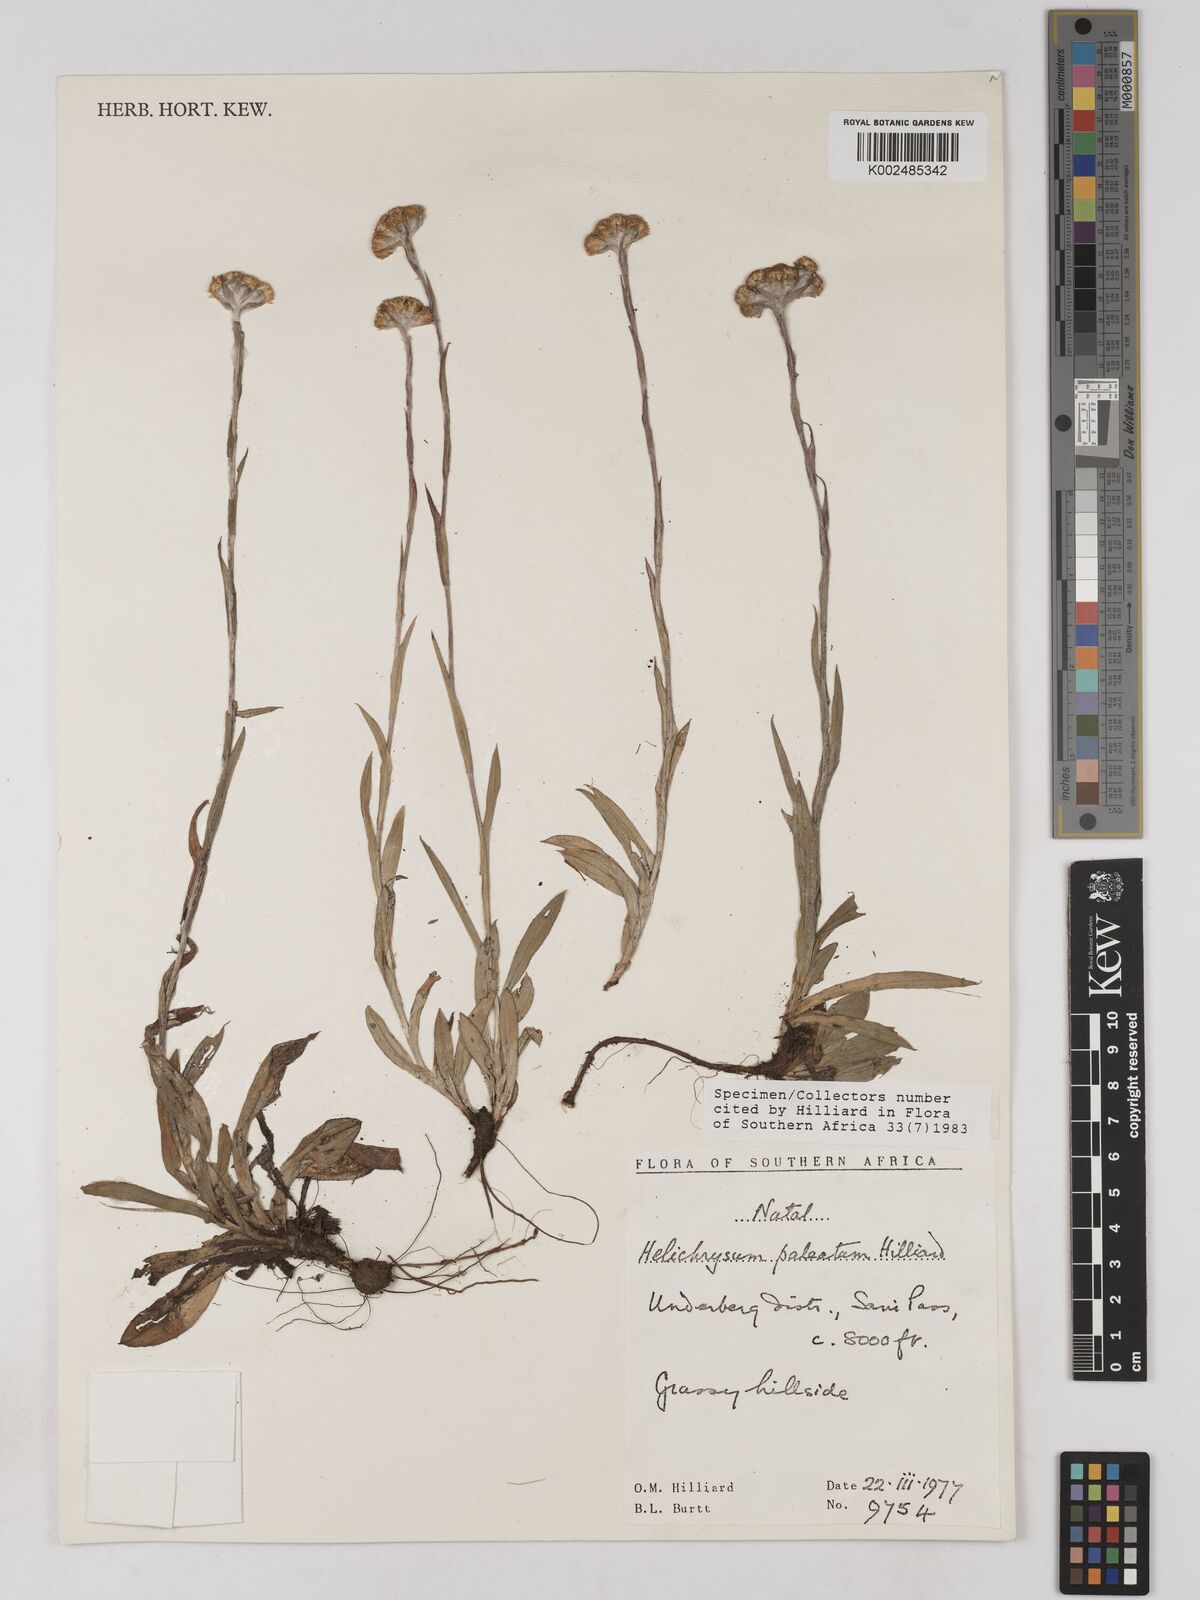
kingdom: Plantae
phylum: Tracheophyta
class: Magnoliopsida
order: Asterales
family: Asteraceae
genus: Helichrysum
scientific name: Helichrysum paleatum
